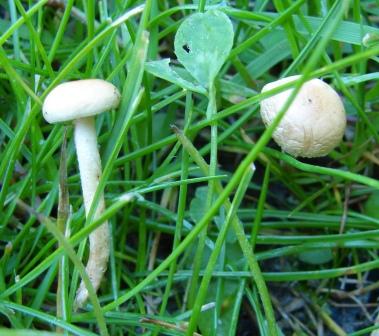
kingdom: Fungi
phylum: Basidiomycota
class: Agaricomycetes
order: Agaricales
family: Strophariaceae
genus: Agrocybe
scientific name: Agrocybe pediades
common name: almindelig agerhat
